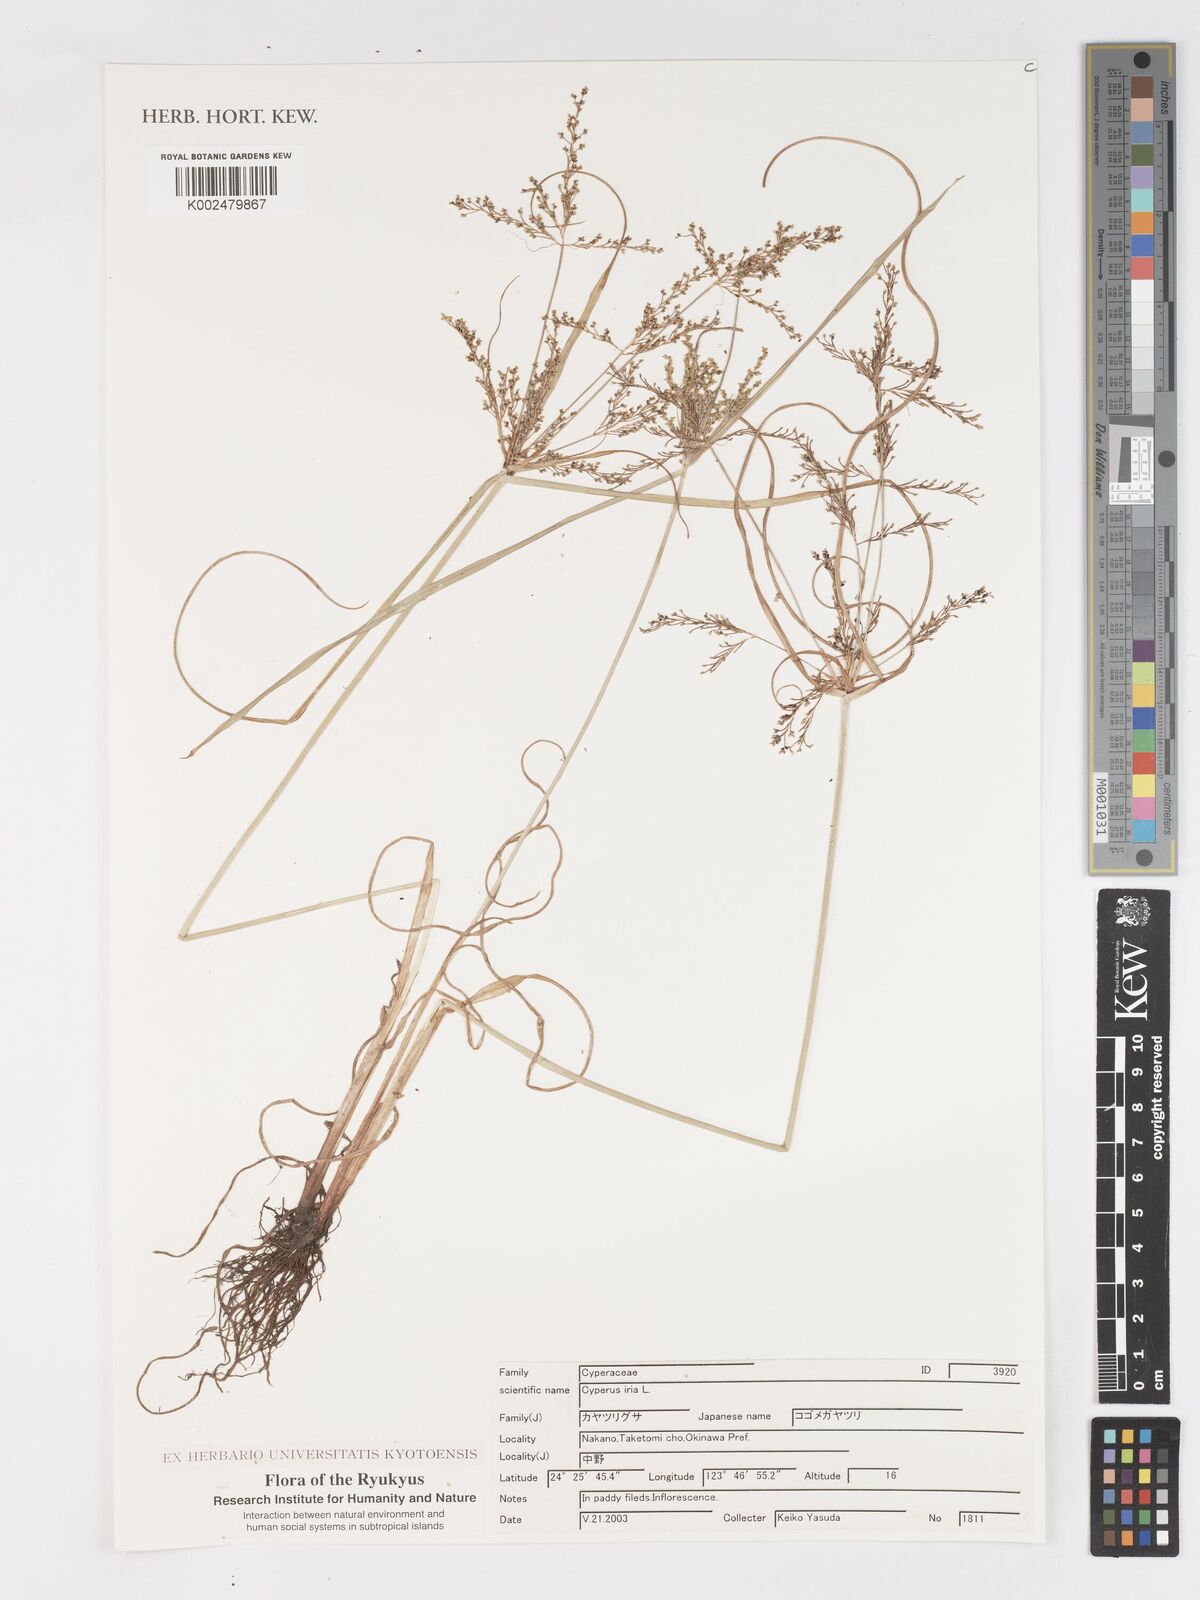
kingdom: Plantae
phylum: Tracheophyta
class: Liliopsida
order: Poales
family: Cyperaceae
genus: Cyperus
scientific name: Cyperus iria
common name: Ricefield flatsedge
